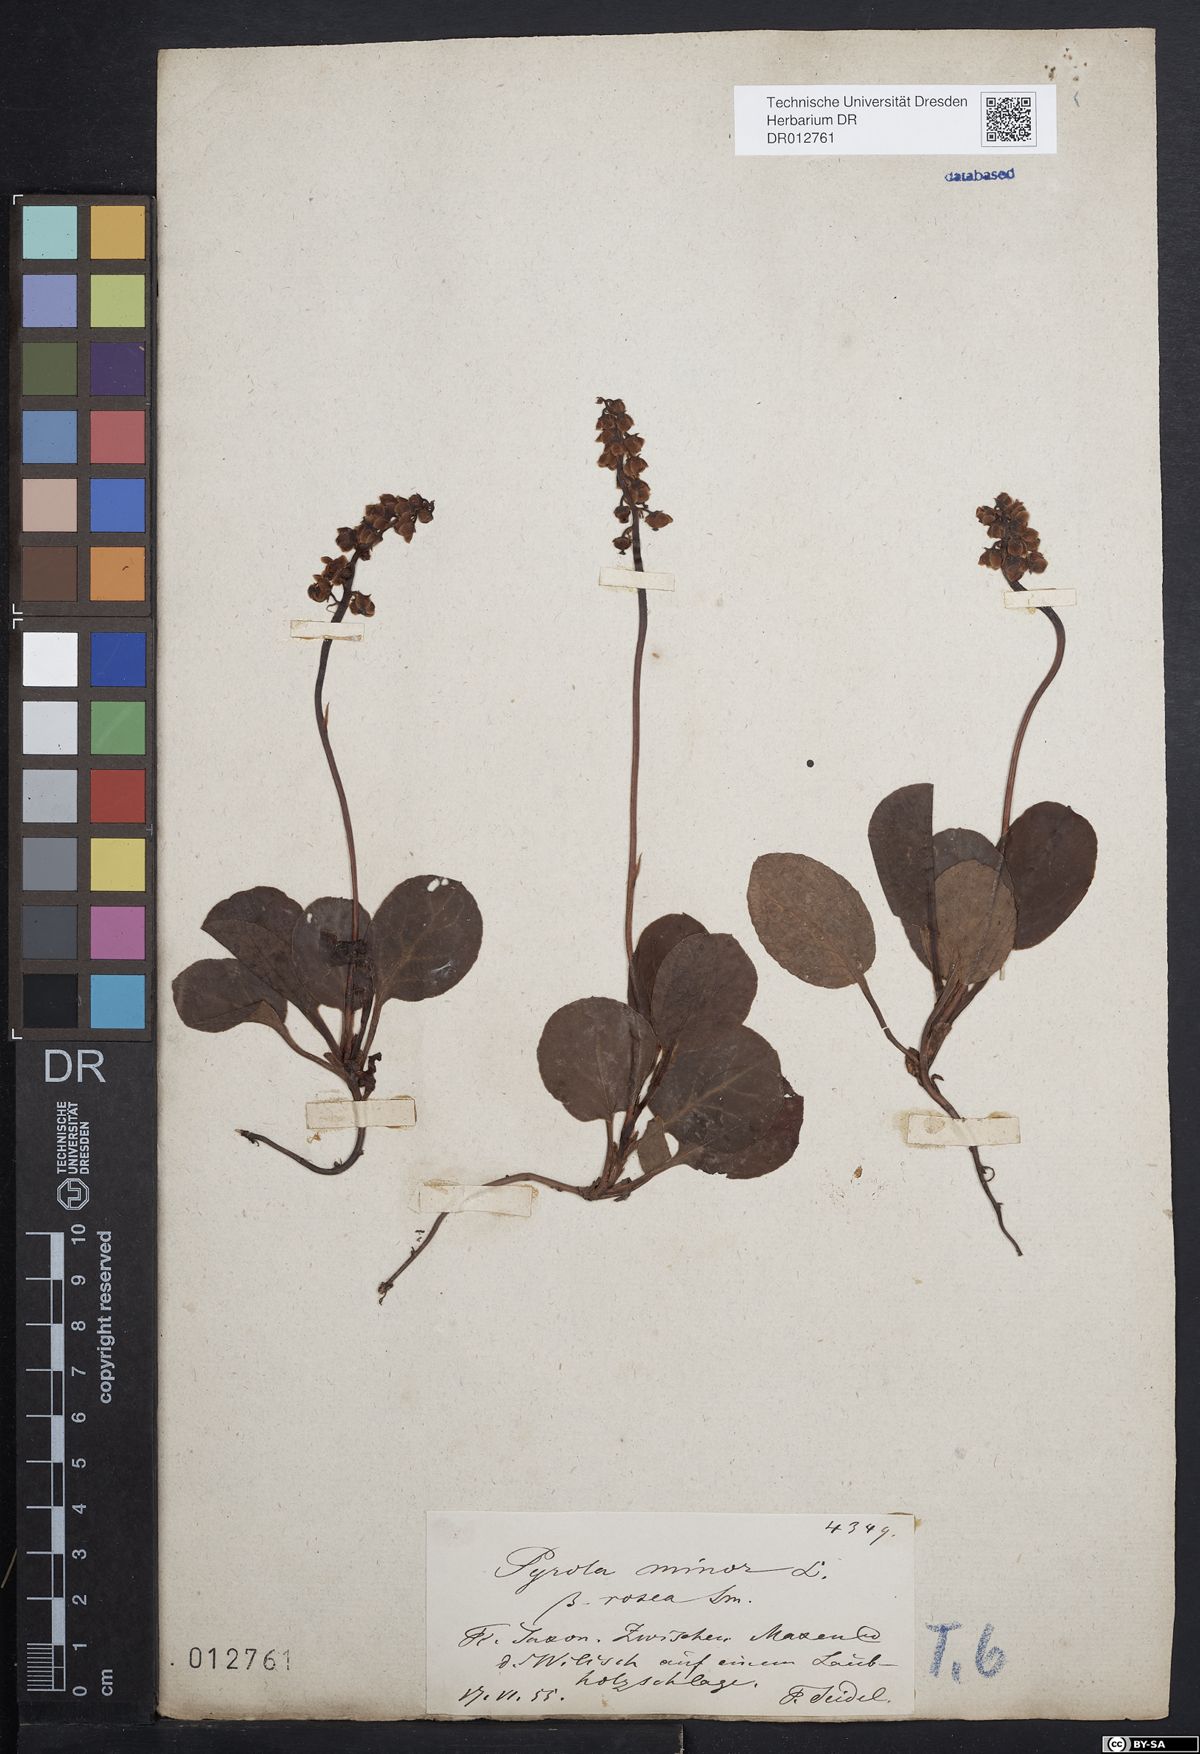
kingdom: Plantae
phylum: Tracheophyta
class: Magnoliopsida
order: Ericales
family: Ericaceae
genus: Pyrola
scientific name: Pyrola minor
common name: Common wintergreen
